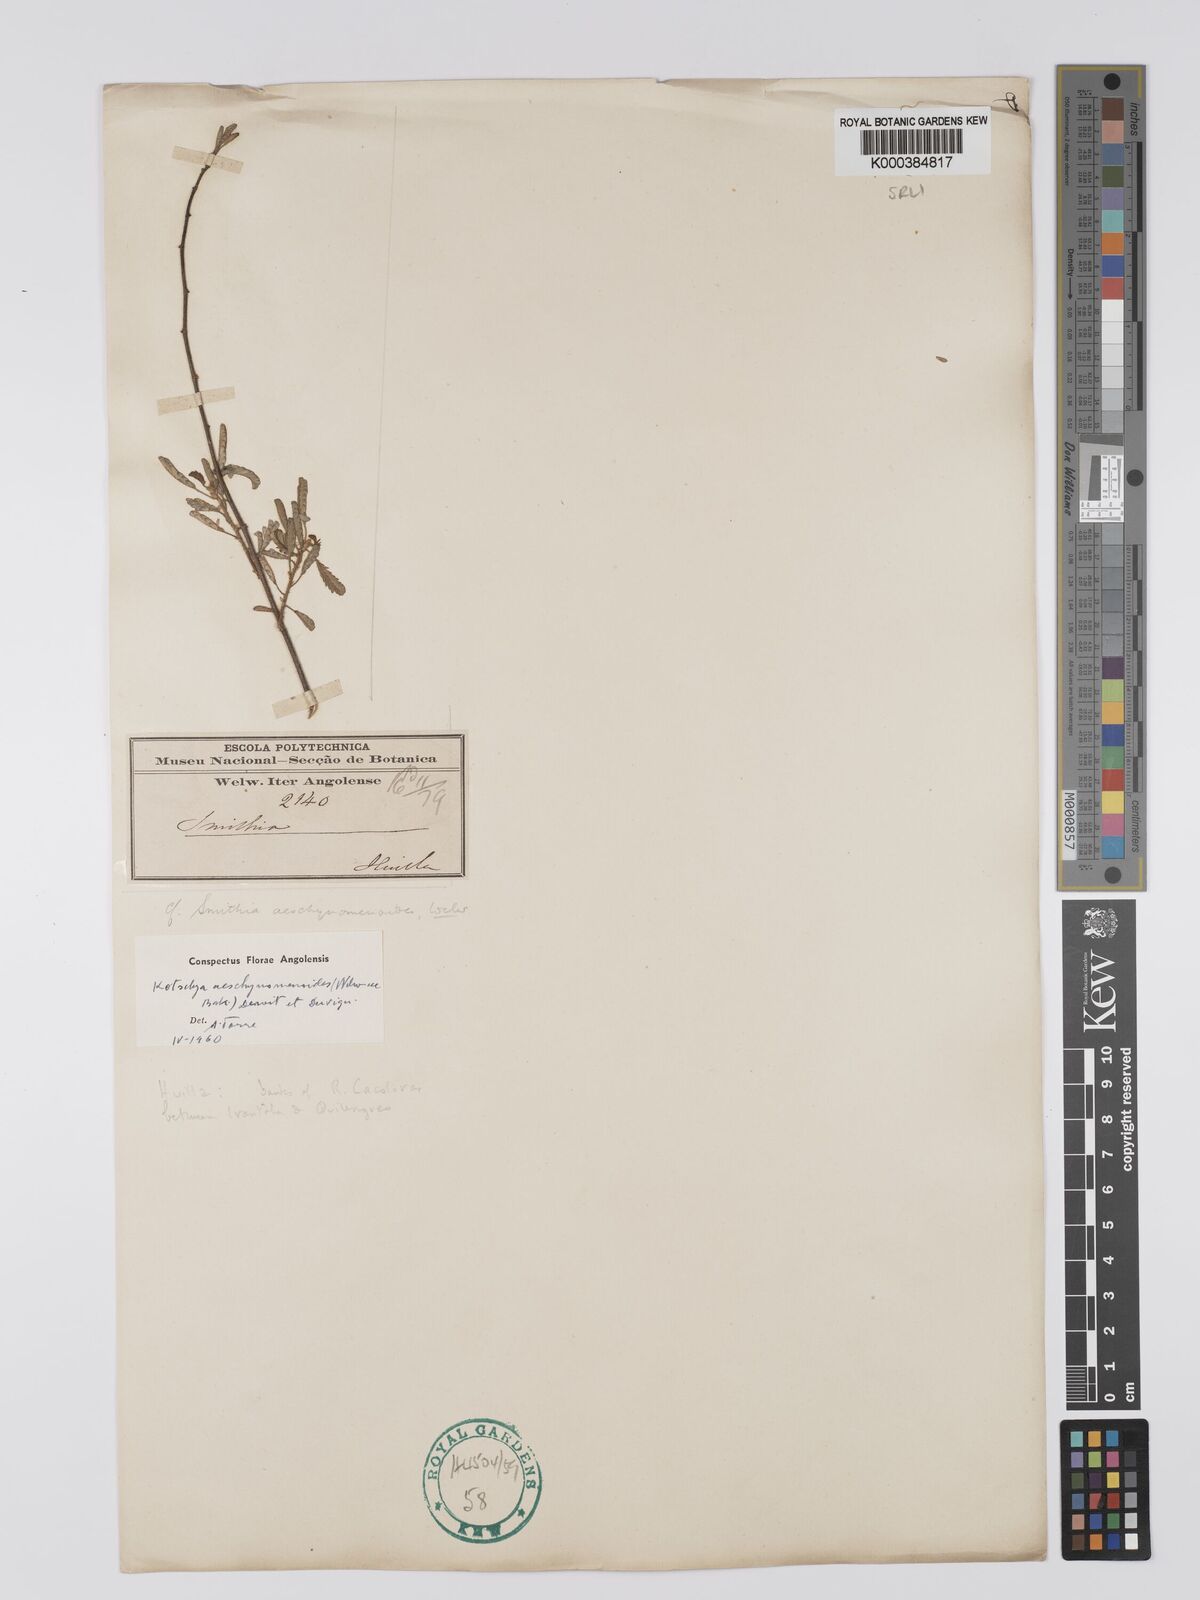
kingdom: Plantae
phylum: Tracheophyta
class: Magnoliopsida
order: Fabales
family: Fabaceae
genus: Kotschya
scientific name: Kotschya aeschynomenoides
